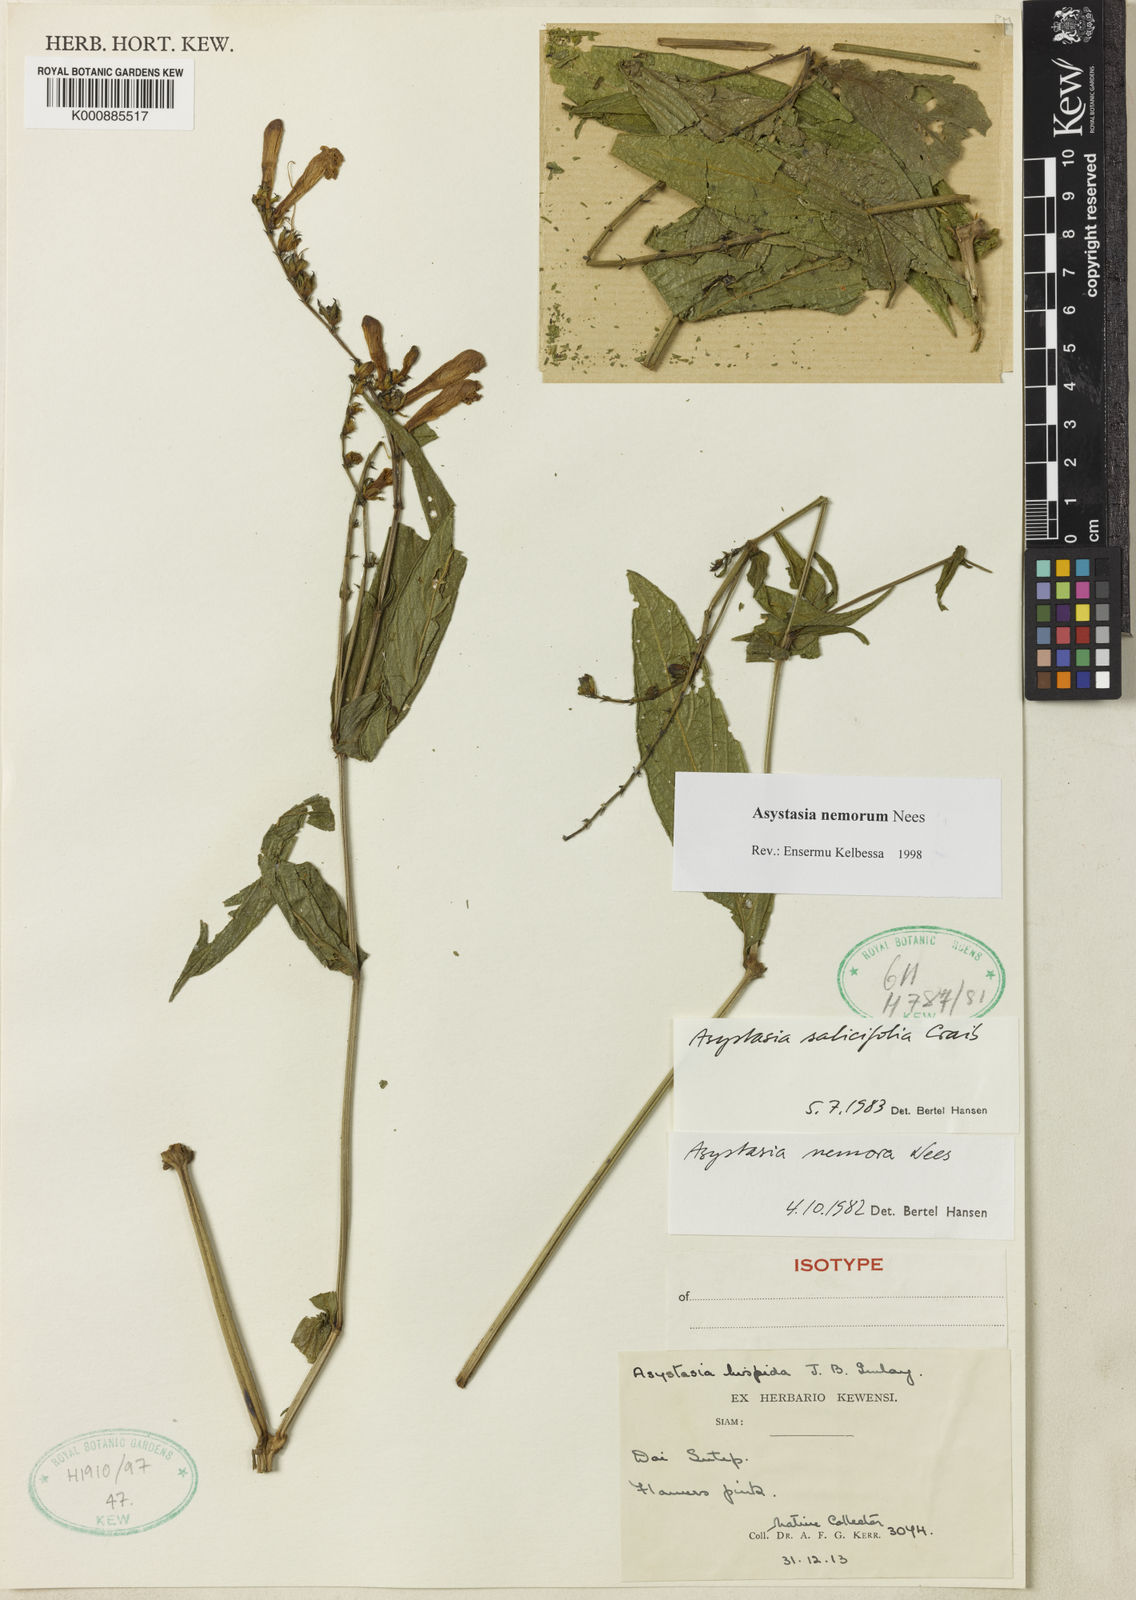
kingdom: Plantae
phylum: Tracheophyta
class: Magnoliopsida
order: Lamiales
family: Acanthaceae
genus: Asystasia
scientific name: Asystasia nemorum
